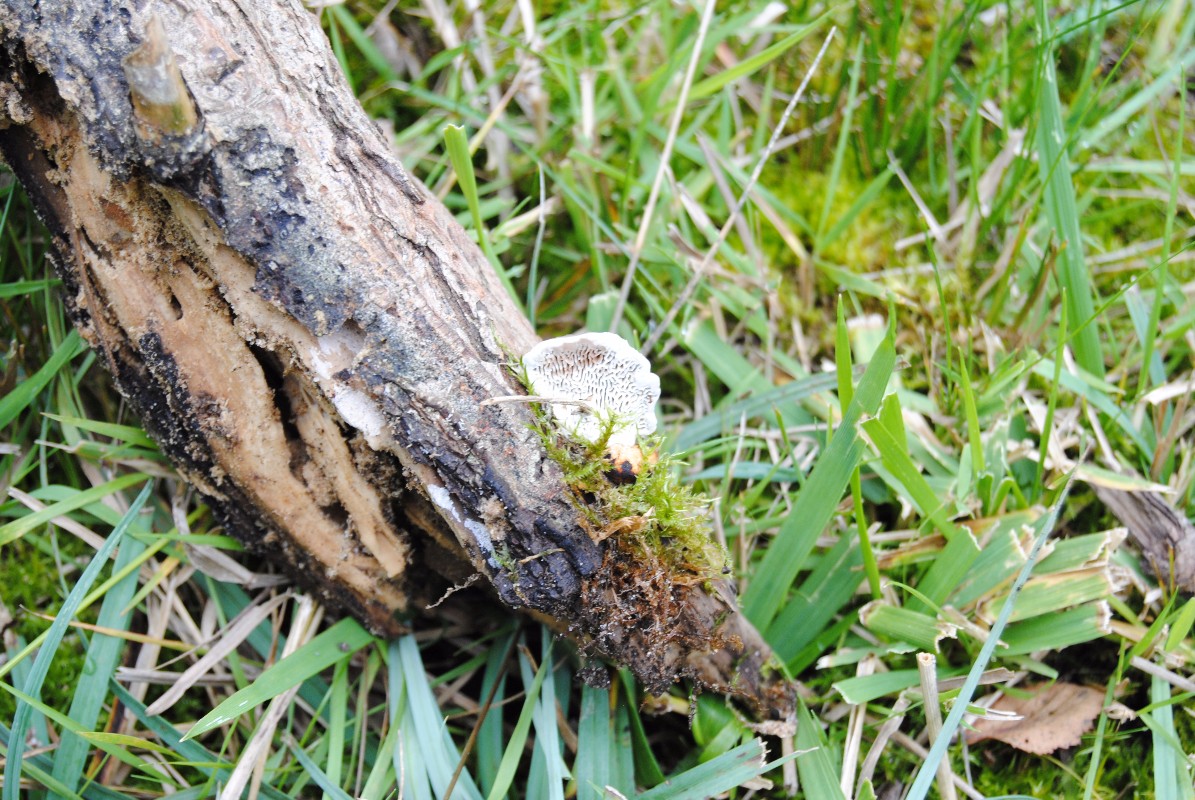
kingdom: Fungi
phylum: Basidiomycota
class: Agaricomycetes
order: Polyporales
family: Polyporaceae
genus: Daedaleopsis
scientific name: Daedaleopsis confragosa
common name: rødmende læderporesvamp
